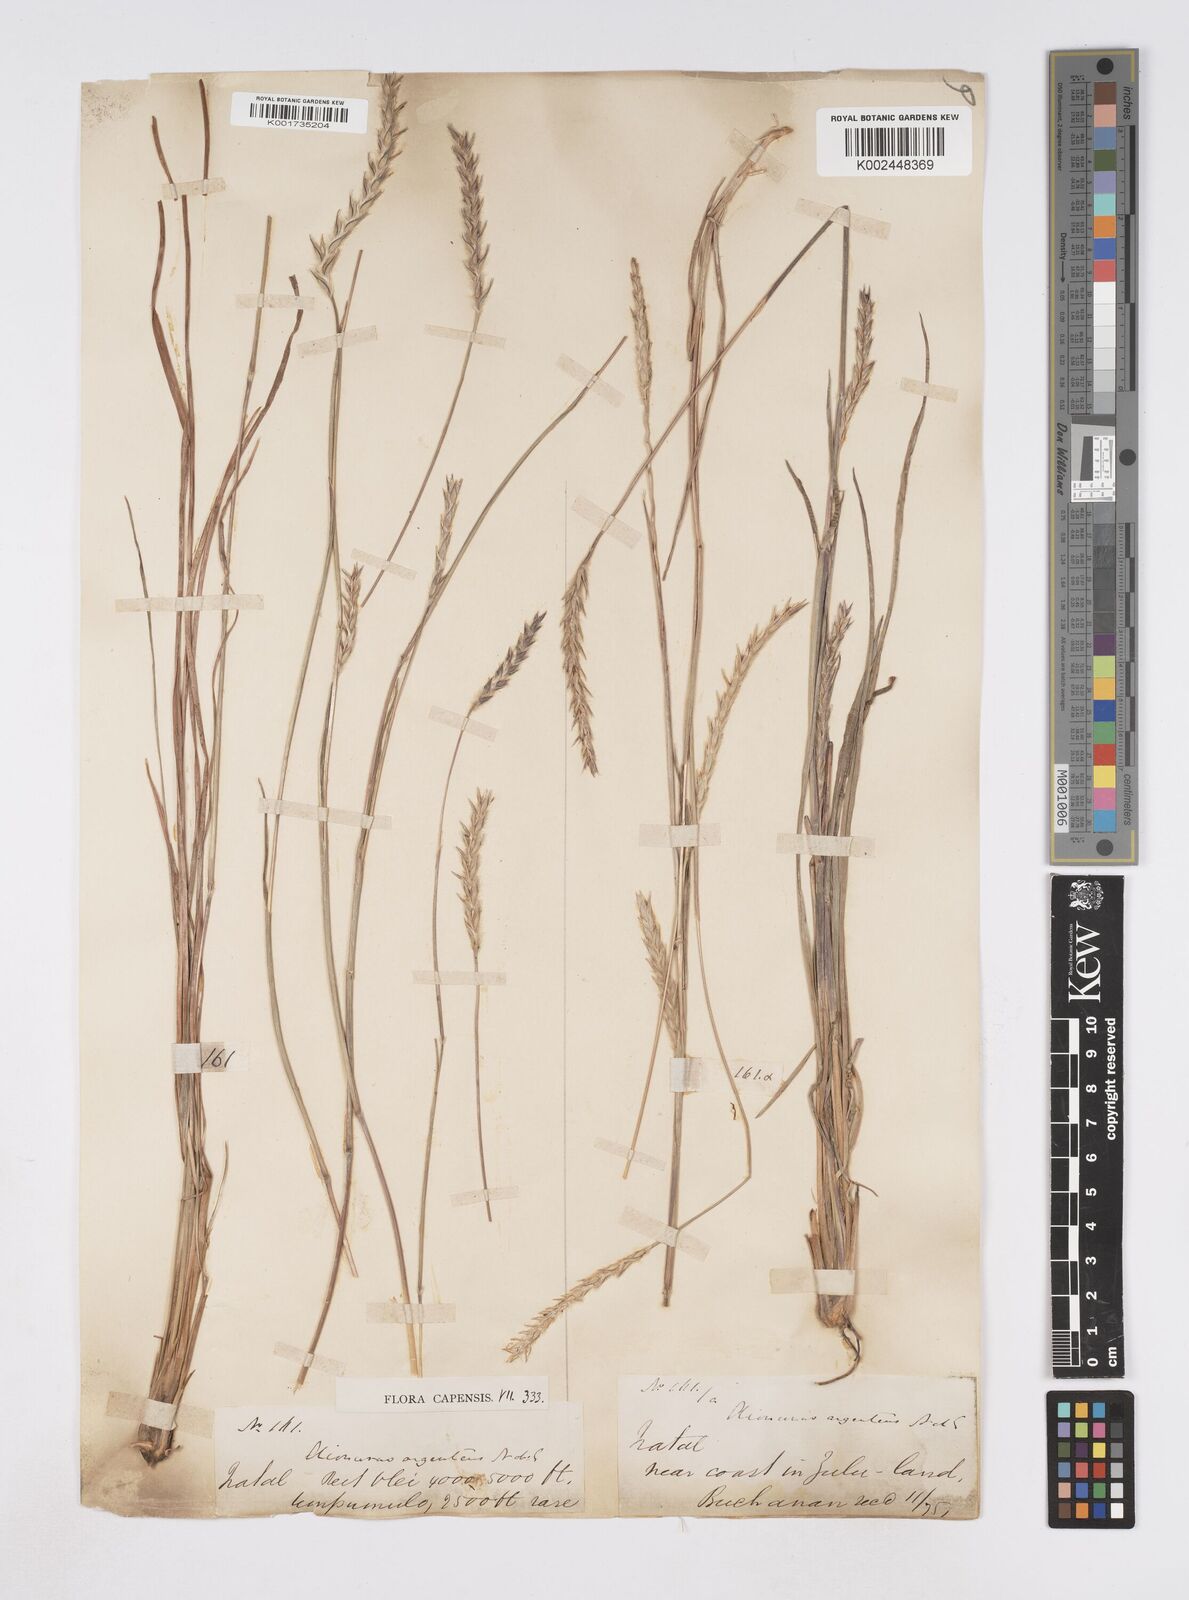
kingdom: Plantae
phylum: Tracheophyta
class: Liliopsida
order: Poales
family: Poaceae
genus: Elionurus
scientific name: Elionurus muticus
